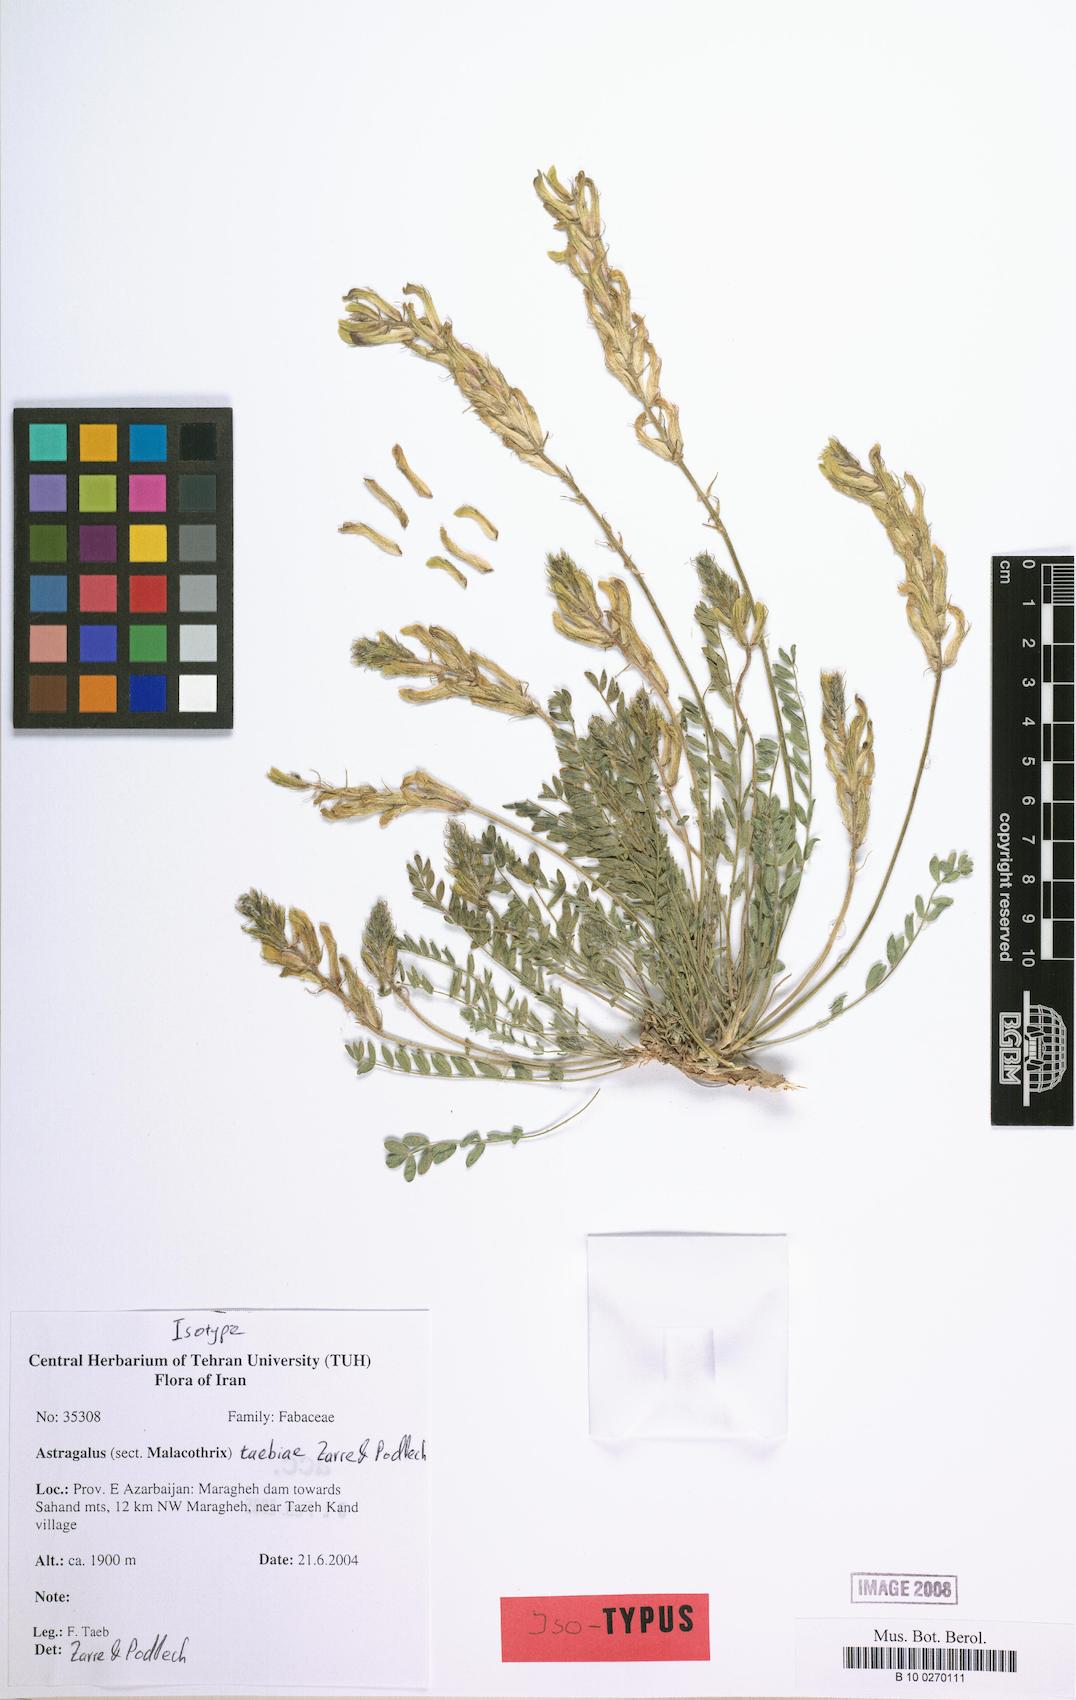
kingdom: Plantae
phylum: Tracheophyta
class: Magnoliopsida
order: Fabales
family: Fabaceae
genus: Astragalus
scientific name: Astragalus taebiae
